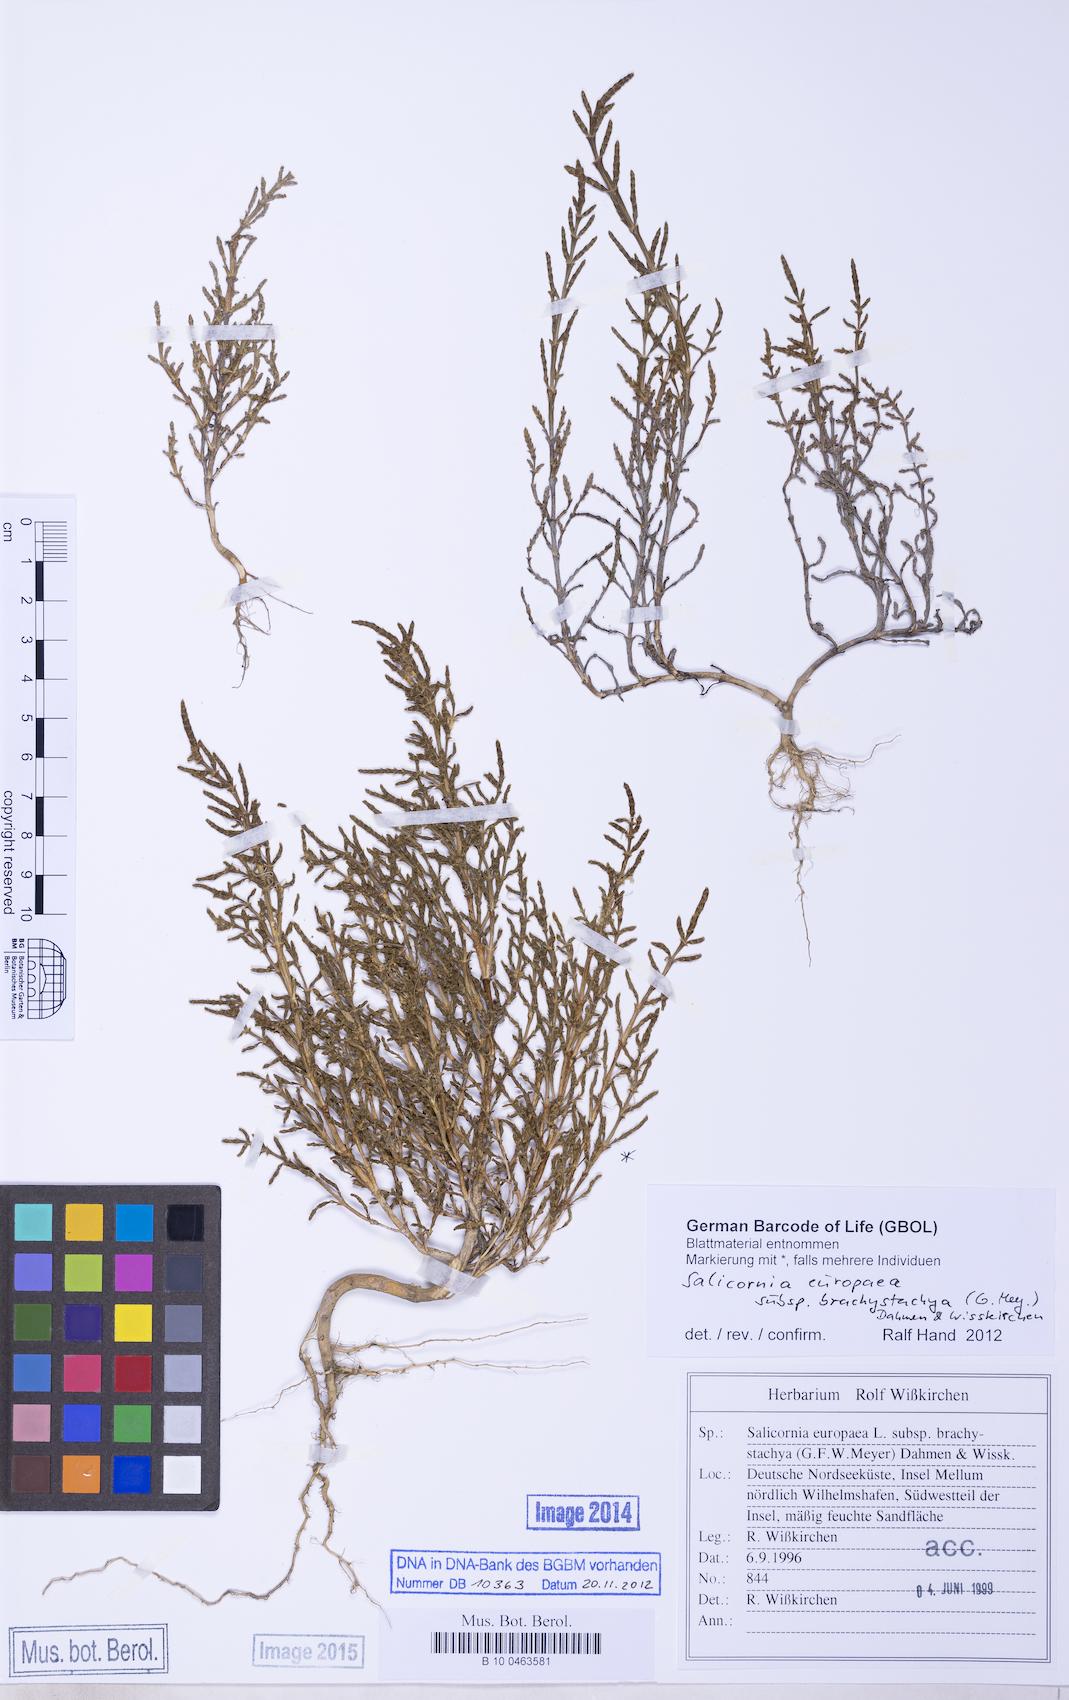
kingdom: Plantae
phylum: Tracheophyta
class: Magnoliopsida
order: Caryophyllales
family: Amaranthaceae
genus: Salicornia
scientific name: Salicornia europaea
